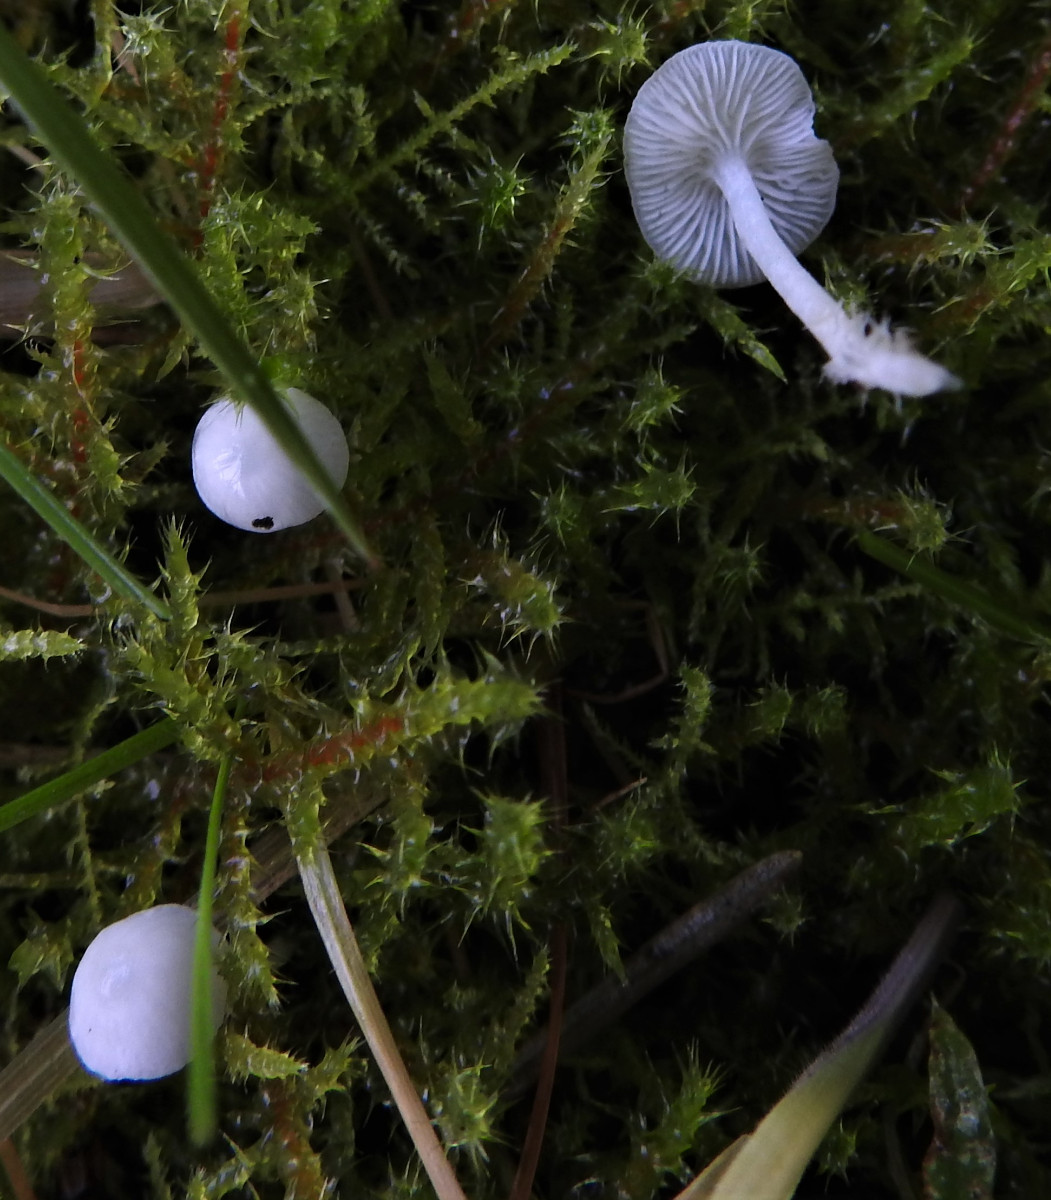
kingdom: Fungi
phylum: Basidiomycota
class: Agaricomycetes
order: Agaricales
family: Mycenaceae
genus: Hemimycena
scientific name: Hemimycena
